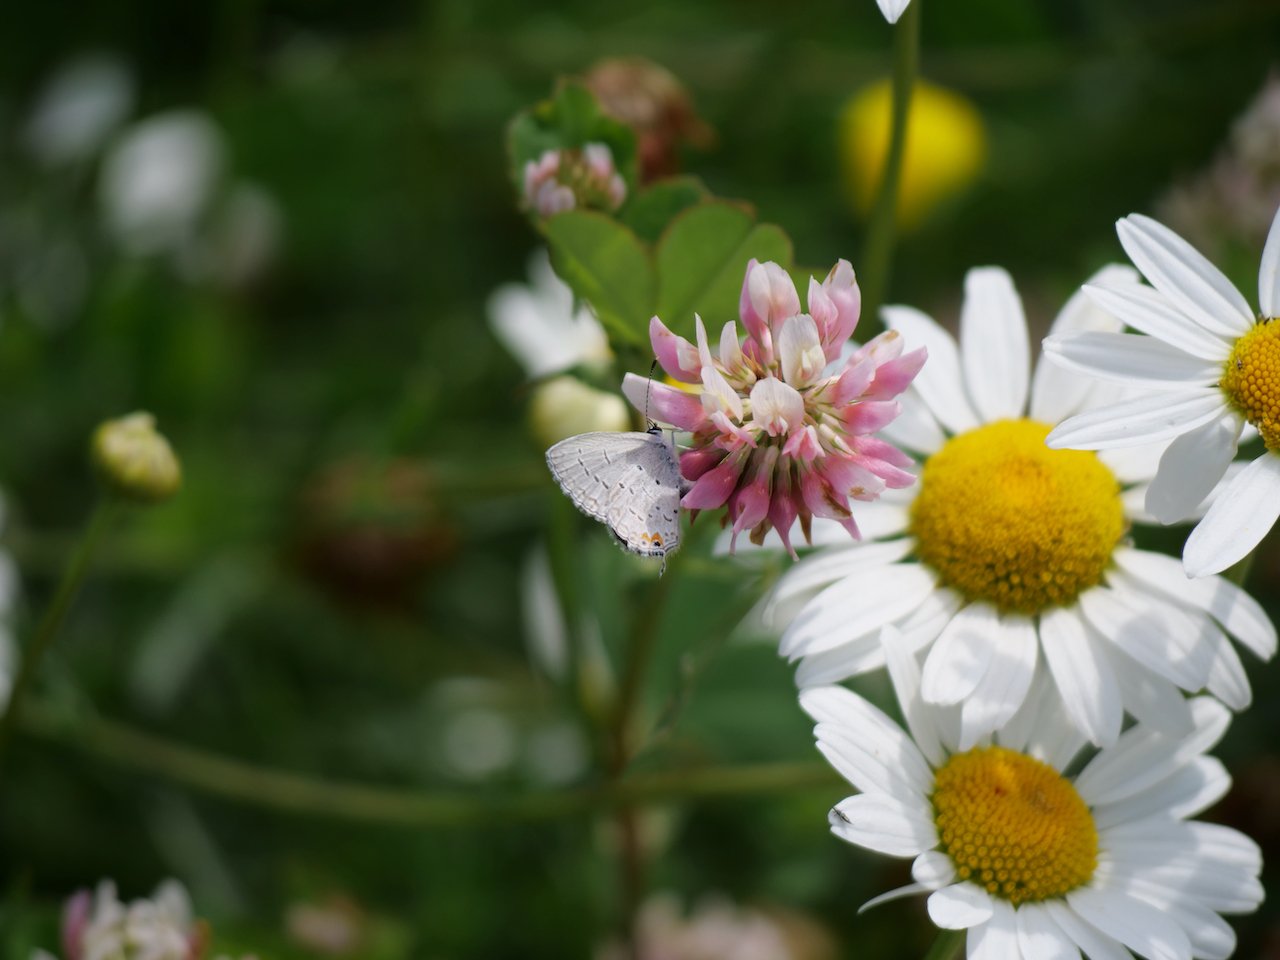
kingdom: Animalia
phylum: Arthropoda
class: Insecta
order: Lepidoptera
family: Lycaenidae
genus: Elkalyce
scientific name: Elkalyce comyntas
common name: Eastern Tailed-Blue
